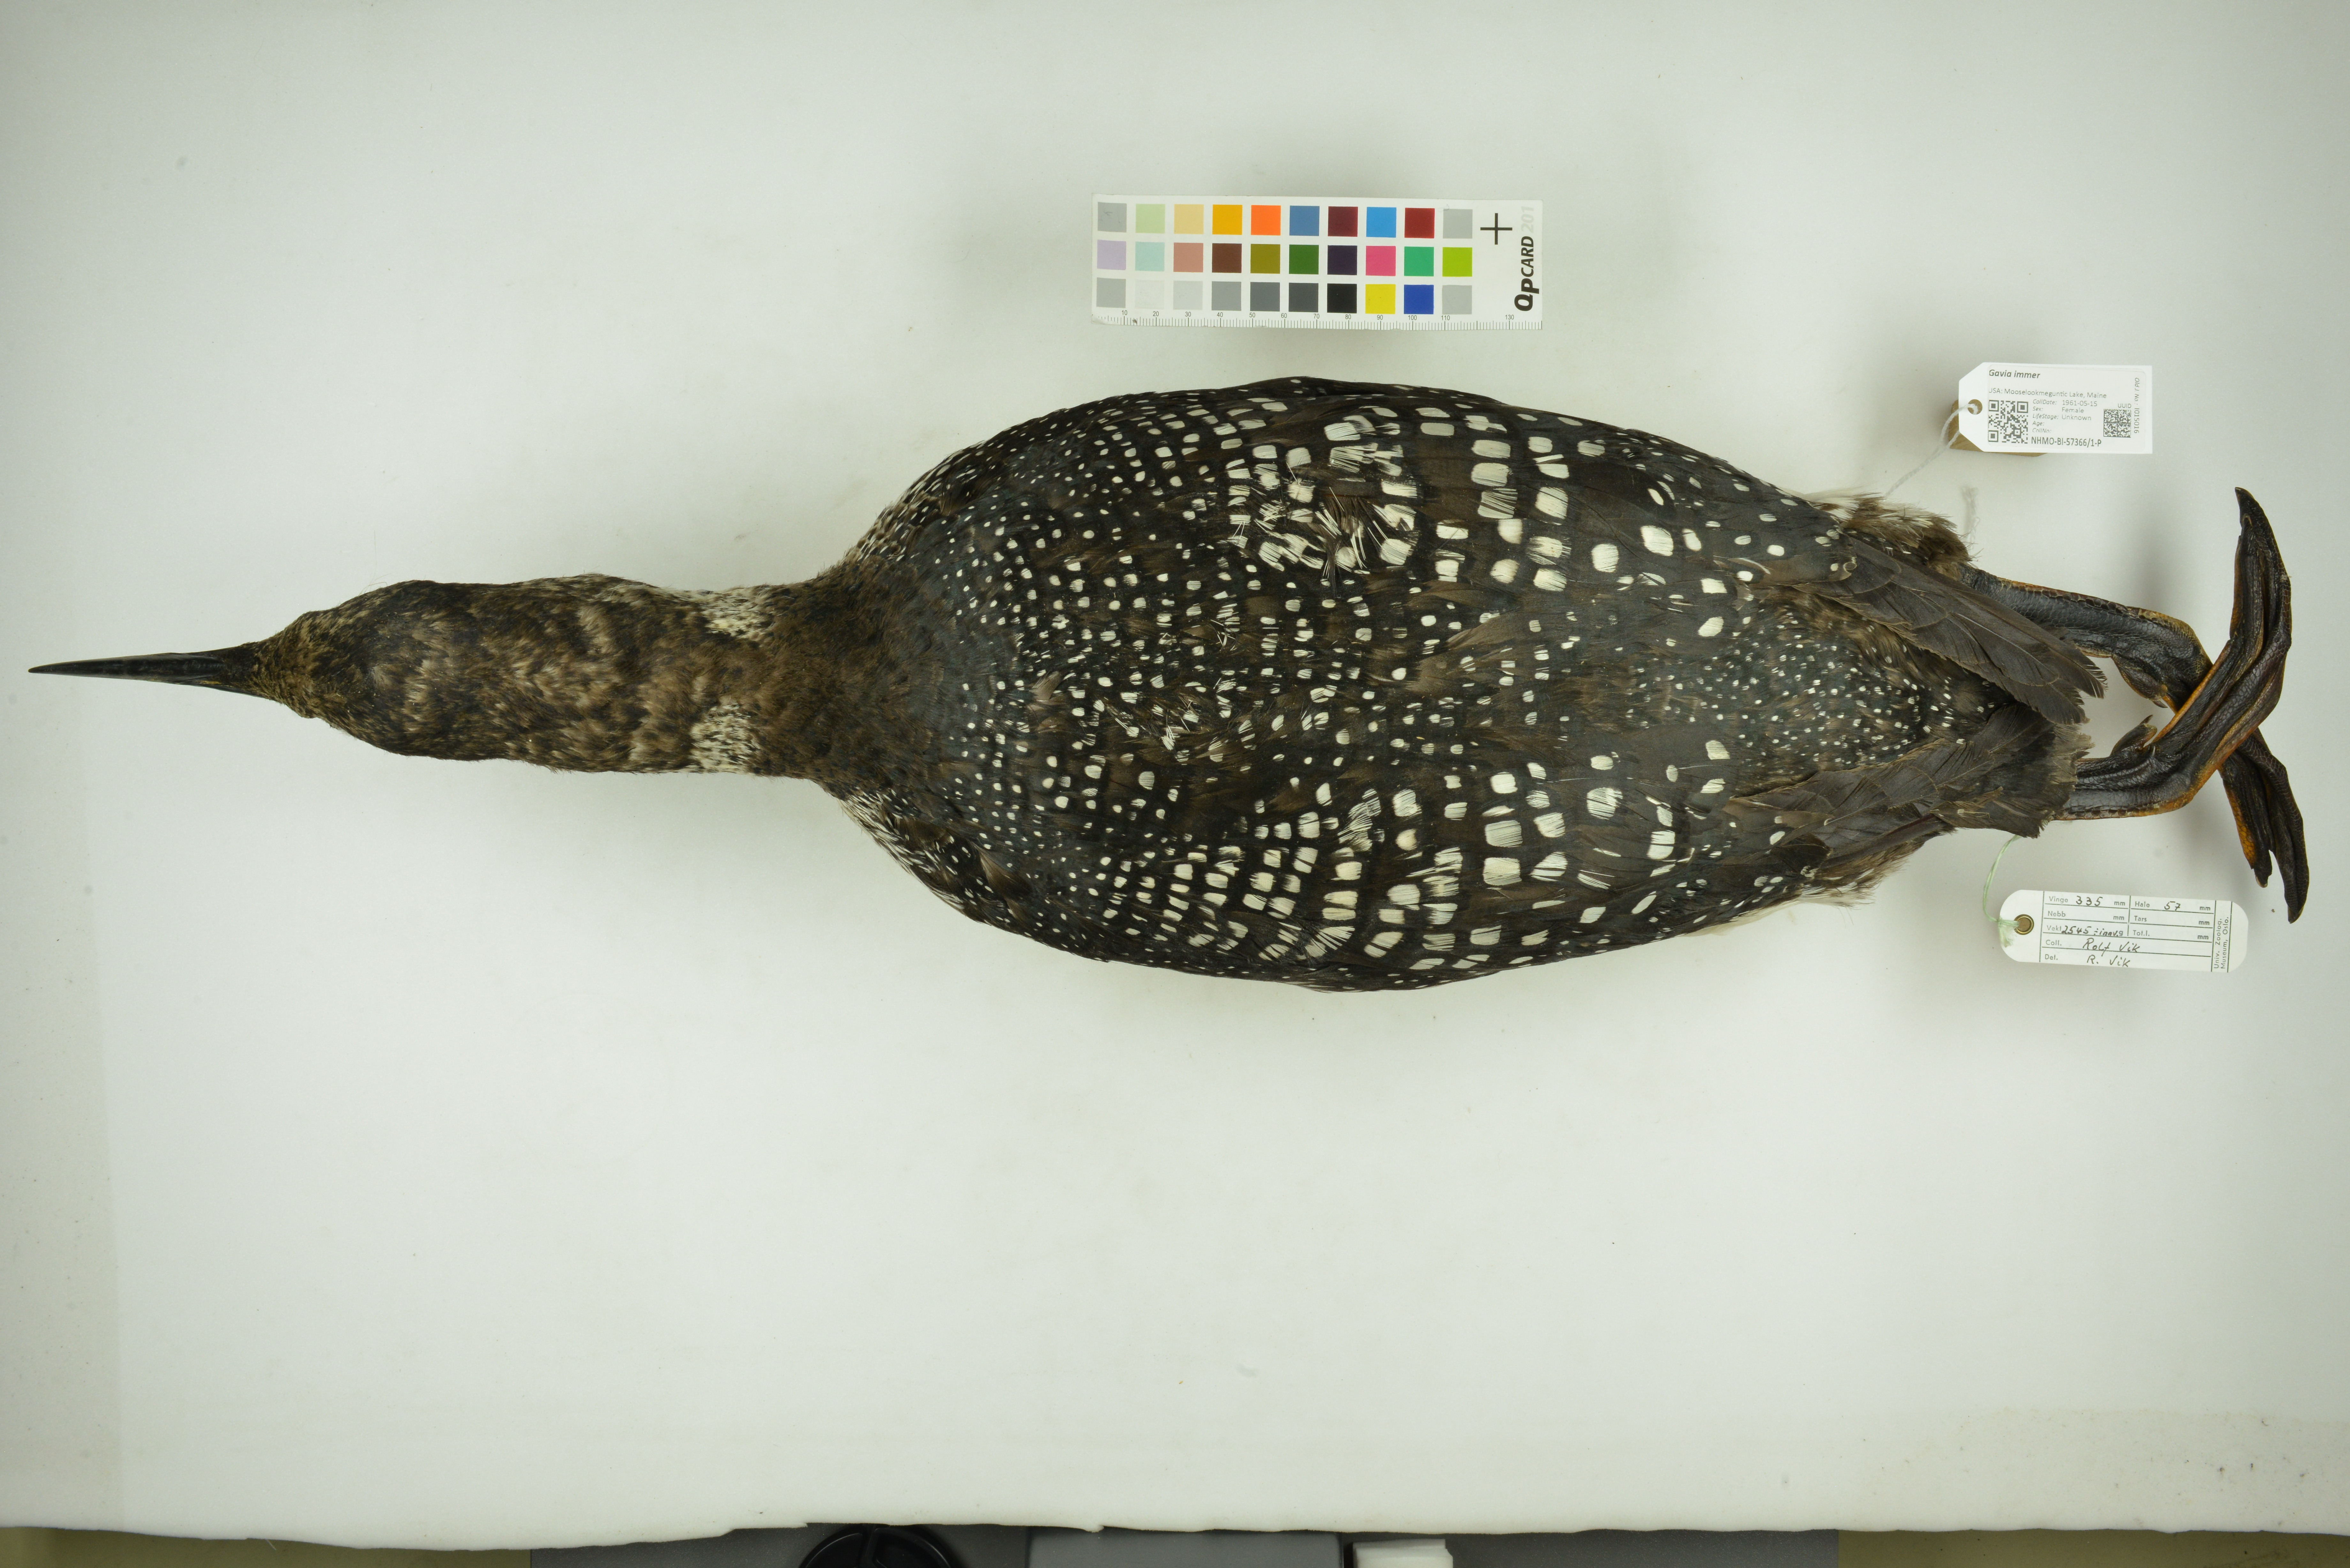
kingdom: Animalia
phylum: Chordata
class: Aves
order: Gaviiformes
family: Gaviidae
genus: Gavia
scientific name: Gavia immer
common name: Common loon
